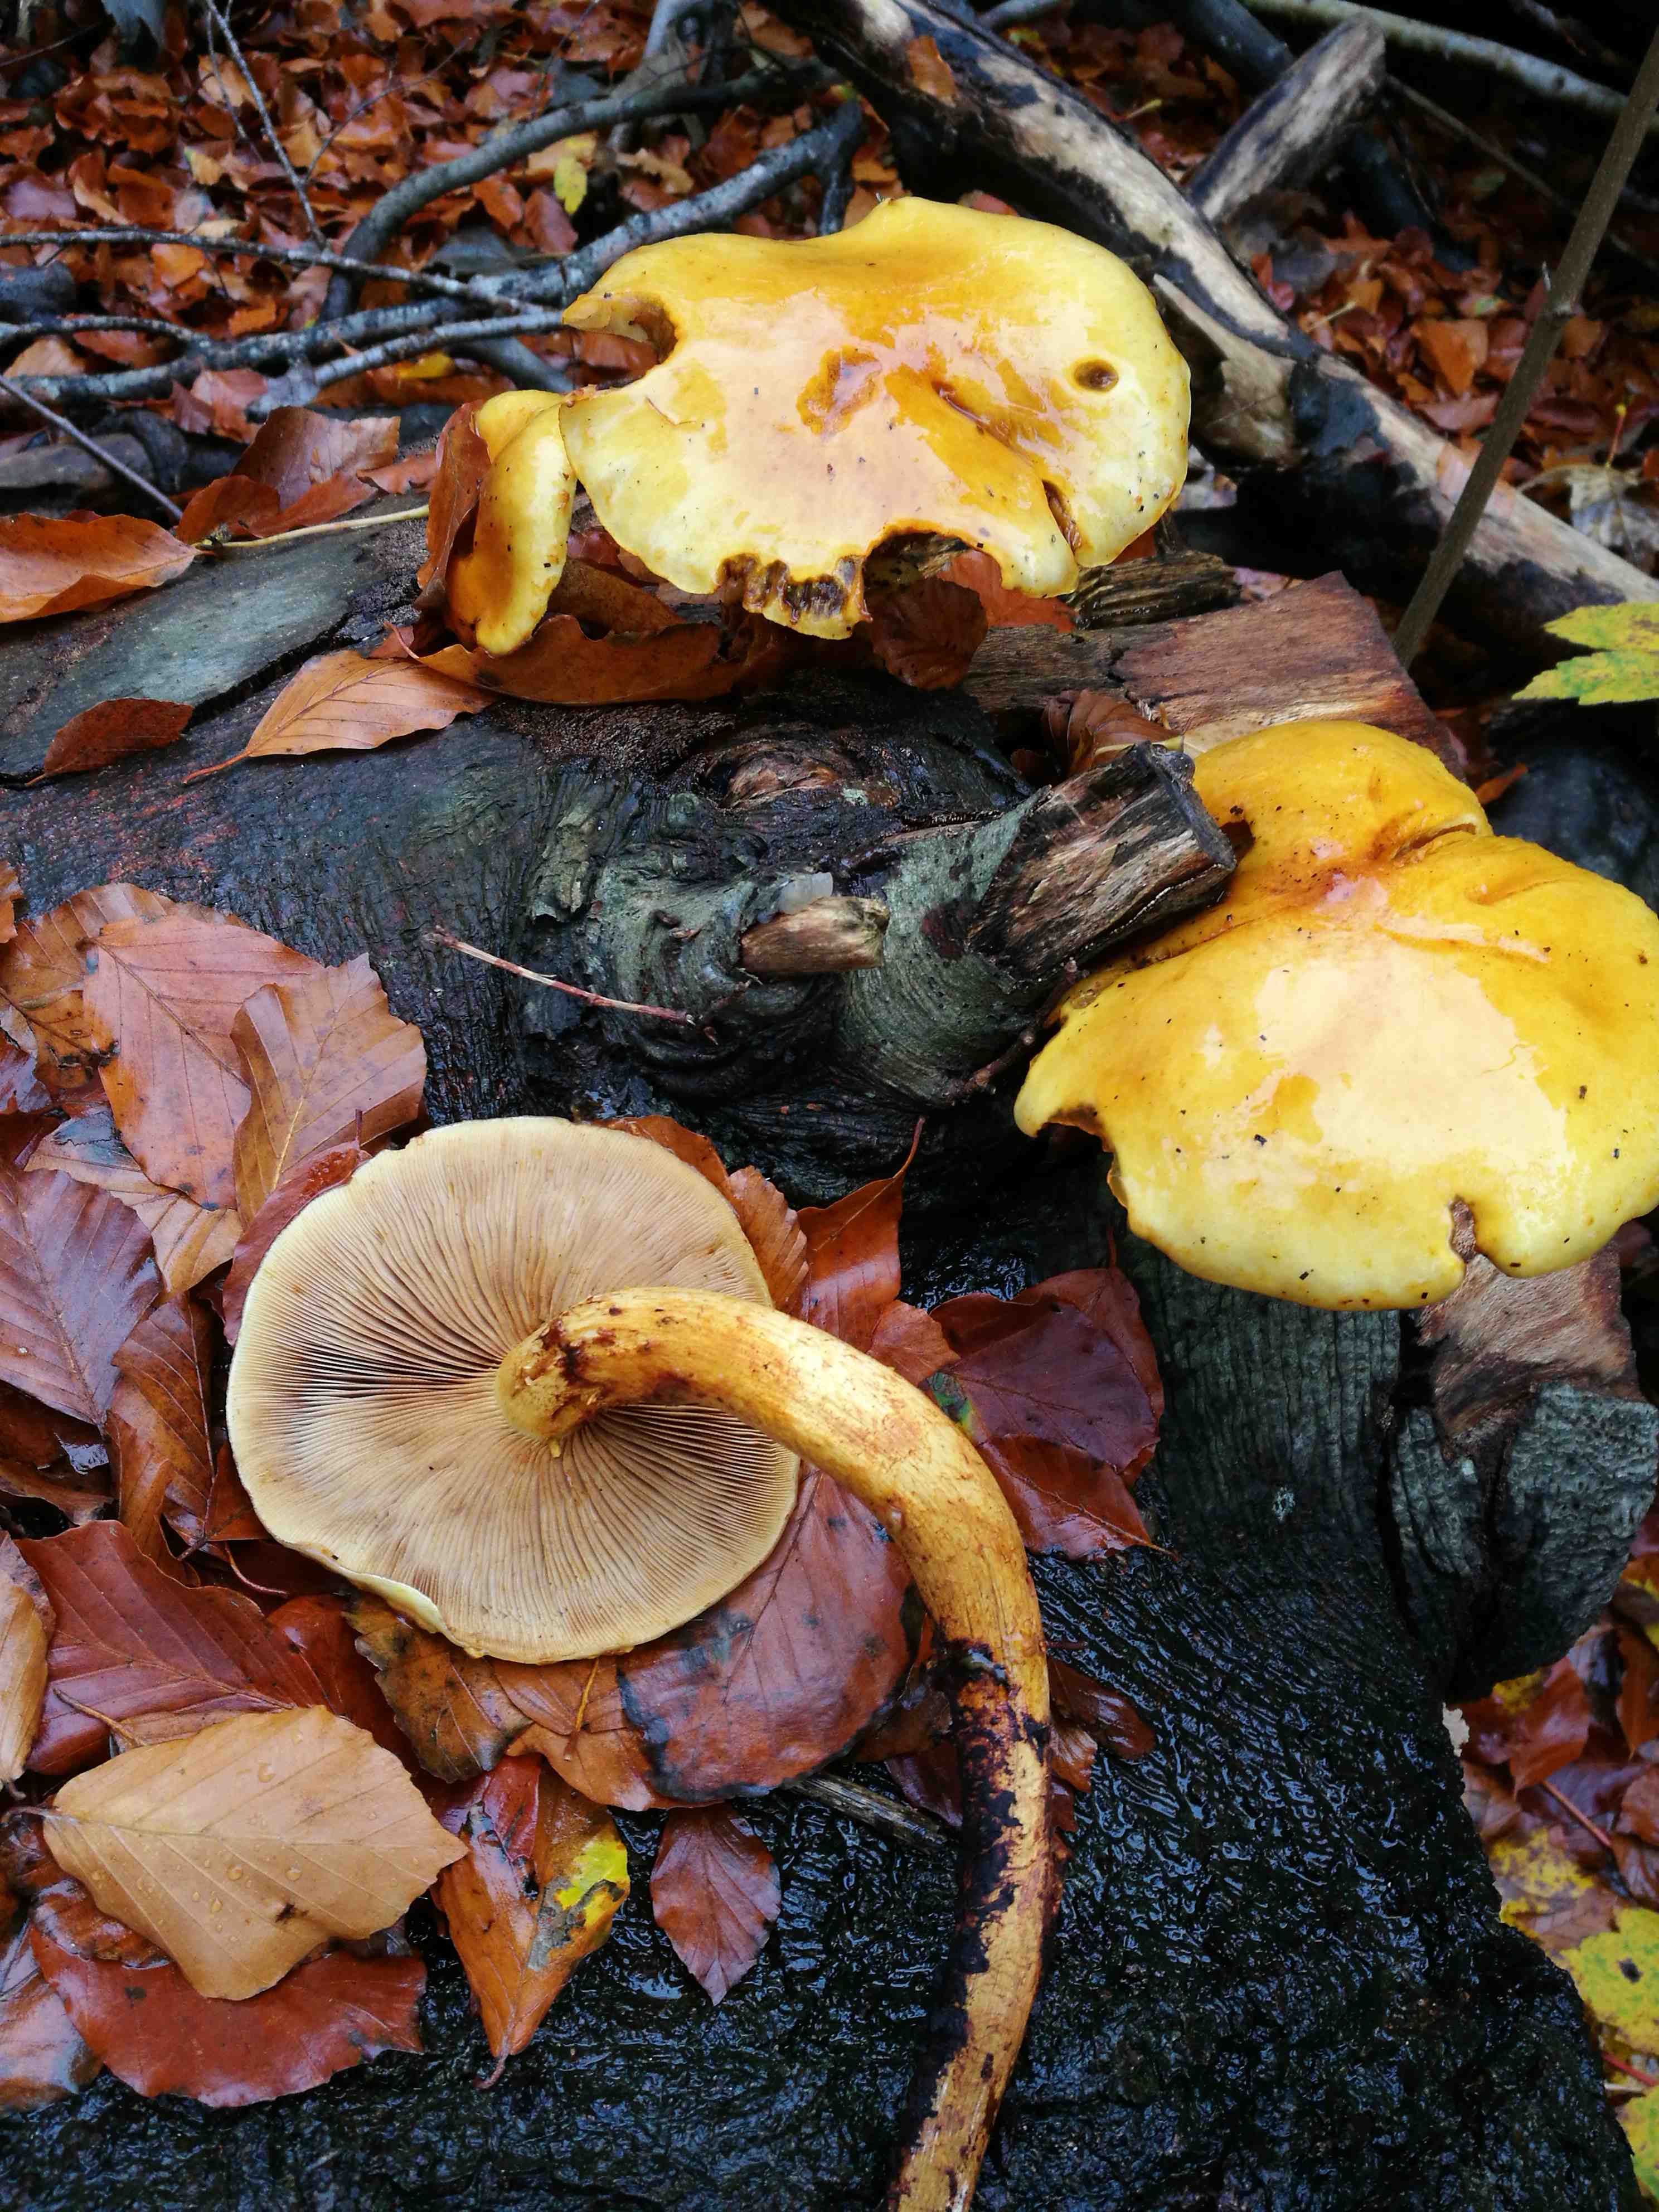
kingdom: Fungi
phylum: Basidiomycota
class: Agaricomycetes
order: Agaricales
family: Hymenogastraceae
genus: Gymnopilus
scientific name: Gymnopilus penetrans
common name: plettet flammehat
